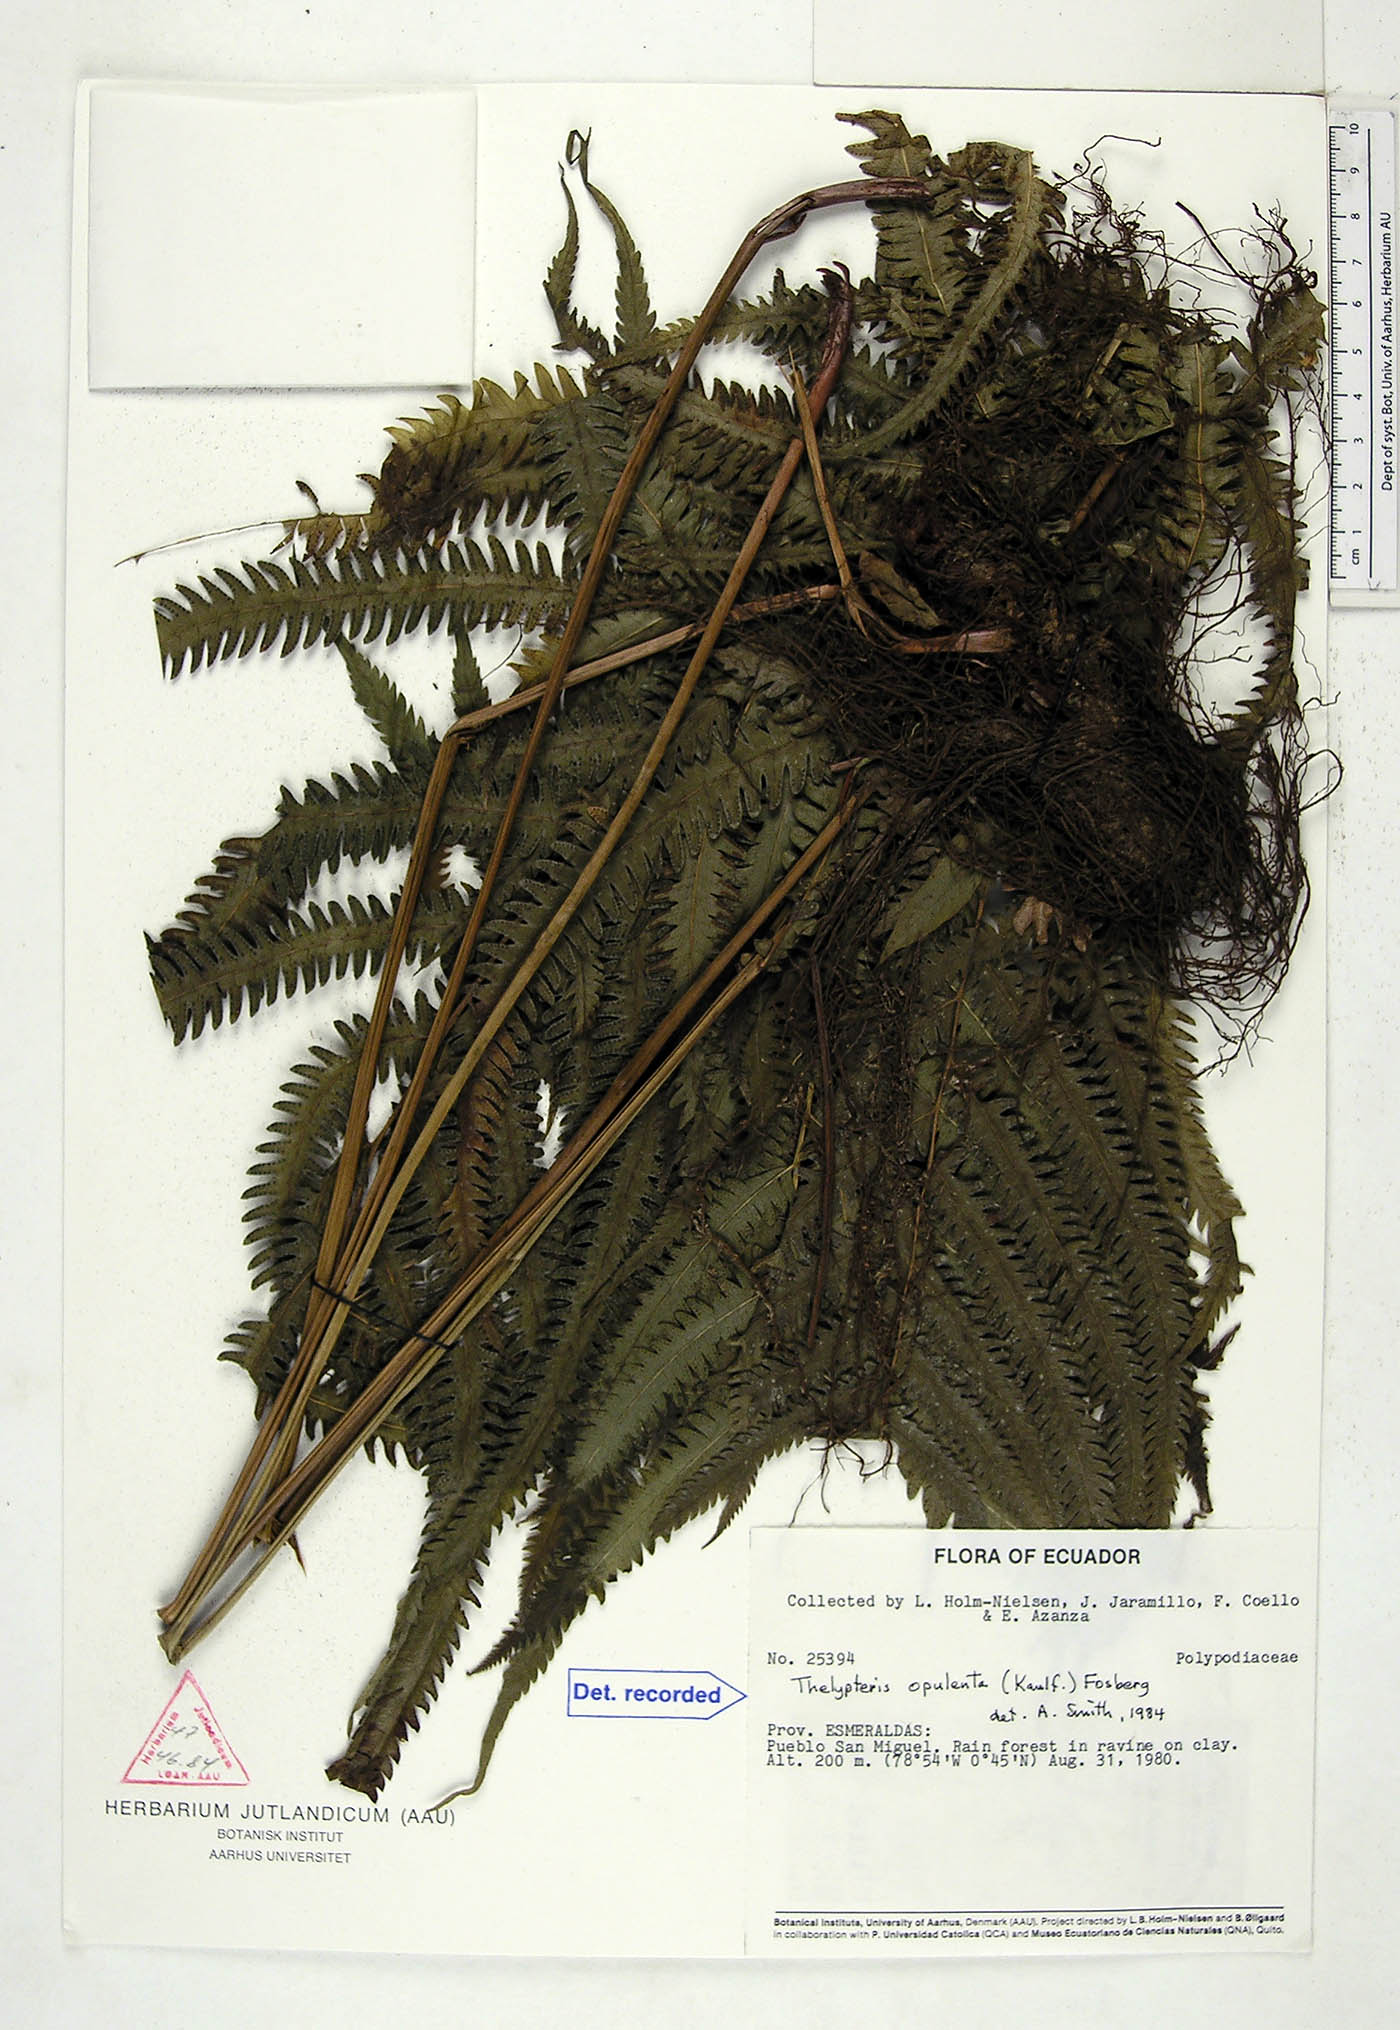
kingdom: Plantae
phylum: Tracheophyta
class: Polypodiopsida
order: Polypodiales
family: Thelypteridaceae
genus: Amblovenatum
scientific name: Amblovenatum opulentum
